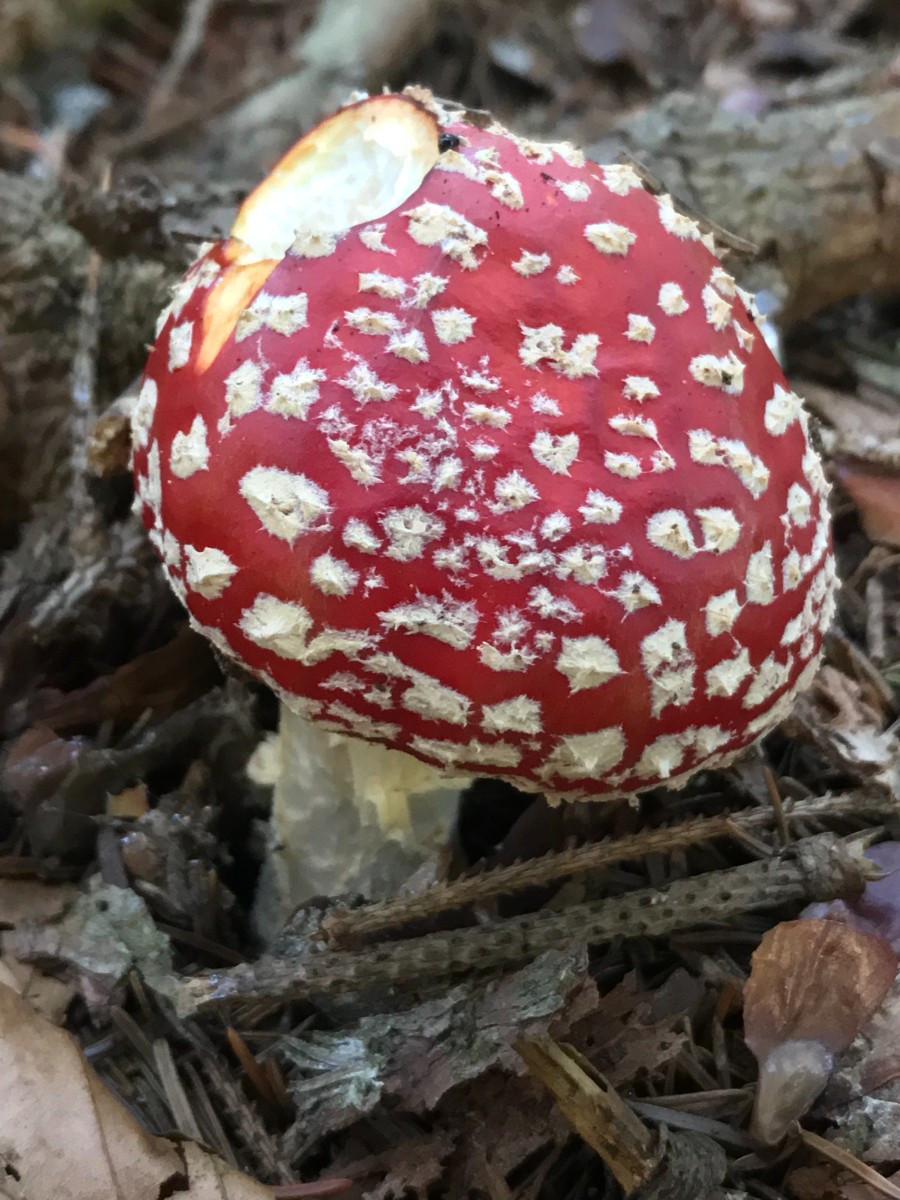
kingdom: Fungi
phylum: Basidiomycota
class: Agaricomycetes
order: Agaricales
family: Amanitaceae
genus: Amanita
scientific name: Amanita muscaria
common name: rød fluesvamp
